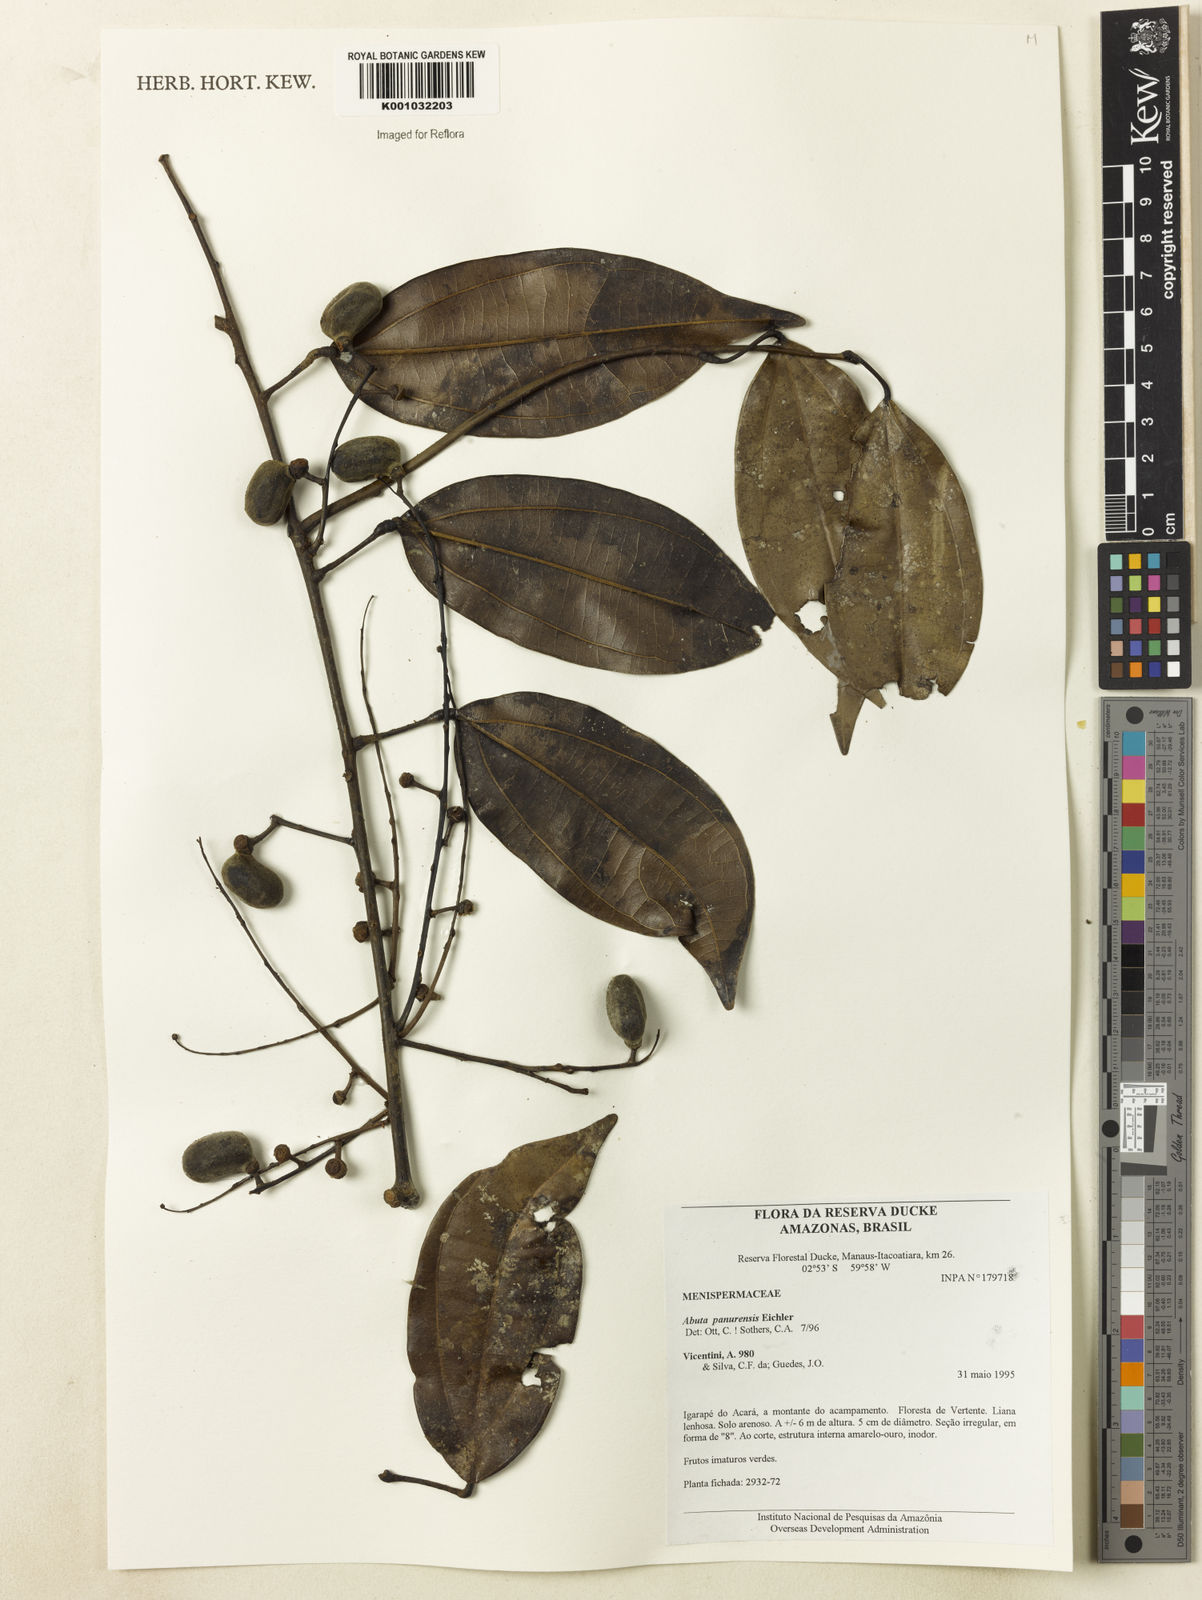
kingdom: Plantae
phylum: Tracheophyta
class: Magnoliopsida
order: Ranunculales
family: Menispermaceae
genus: Abuta
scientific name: Abuta panurensis
